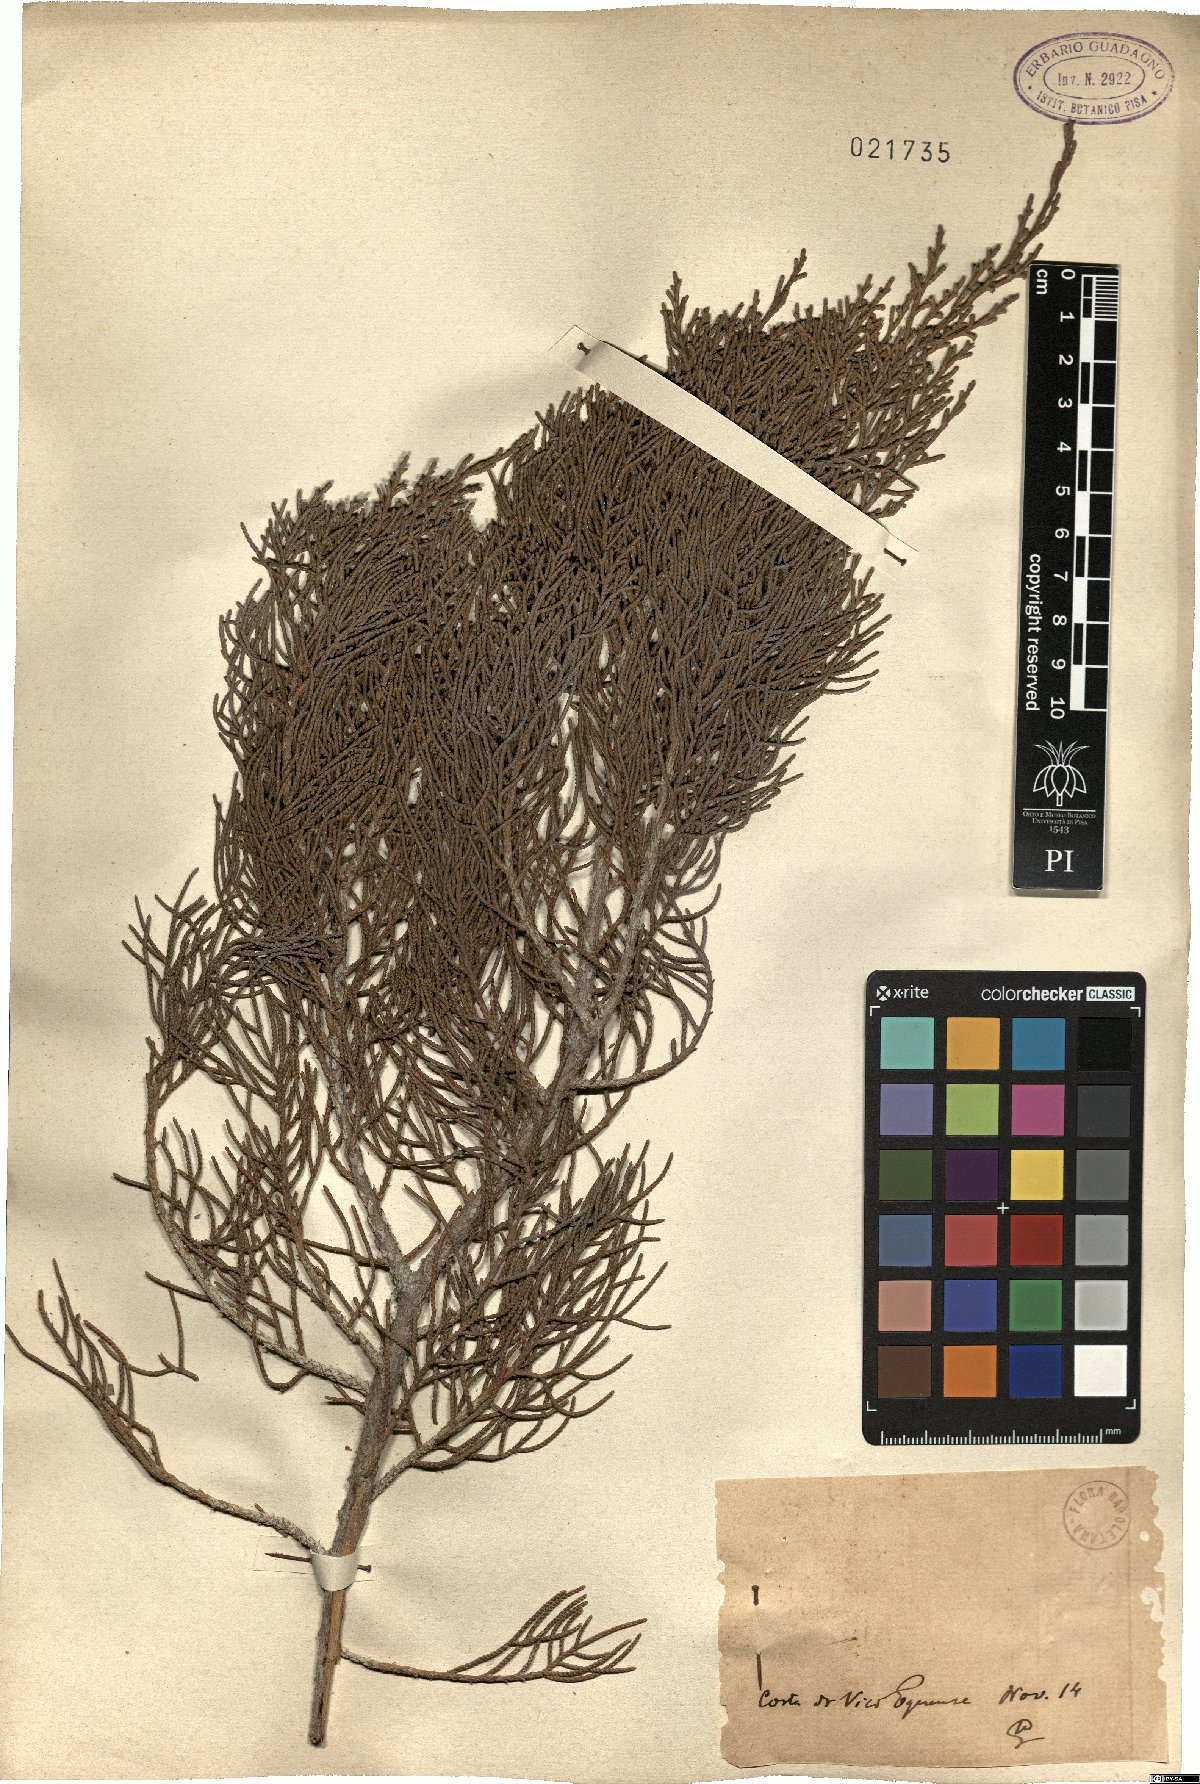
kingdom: Plantae
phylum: Tracheophyta
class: Pinopsida
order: Pinales
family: Cupressaceae
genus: Juniperus
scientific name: Juniperus phoenicea
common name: Phoenician juniper
